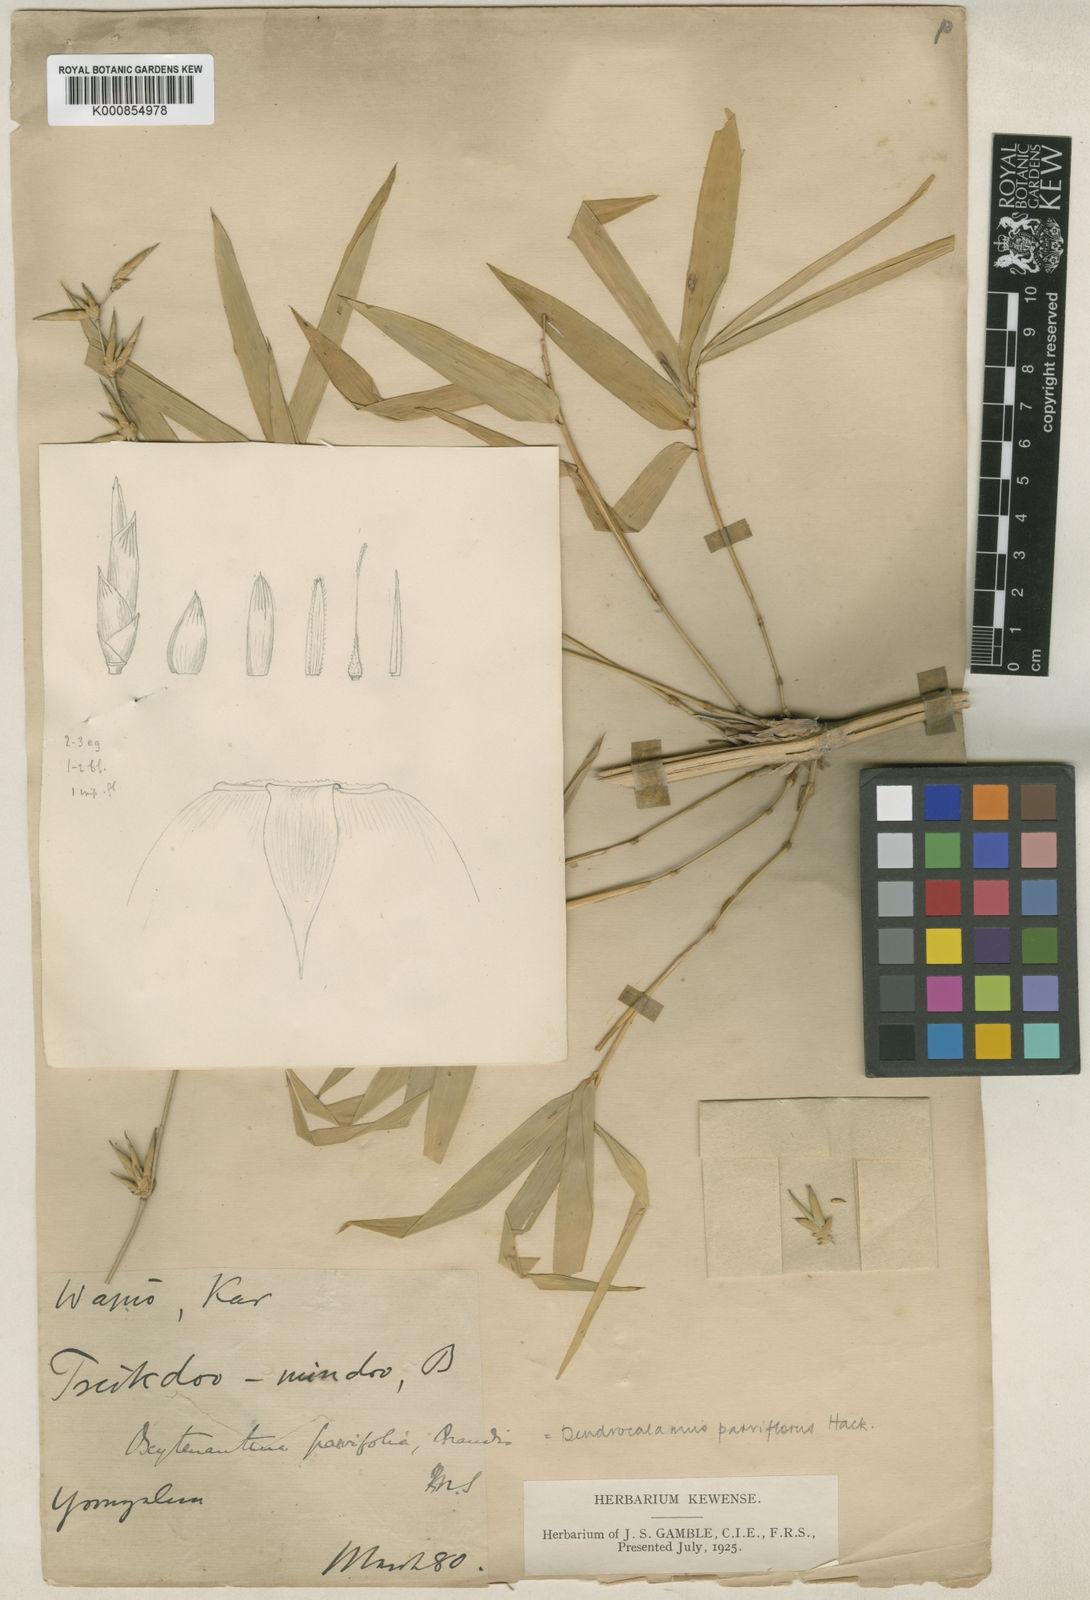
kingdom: Plantae
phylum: Tracheophyta
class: Liliopsida
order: Poales
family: Poaceae
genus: Dendrocalamus
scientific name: Dendrocalamus merrillianus
